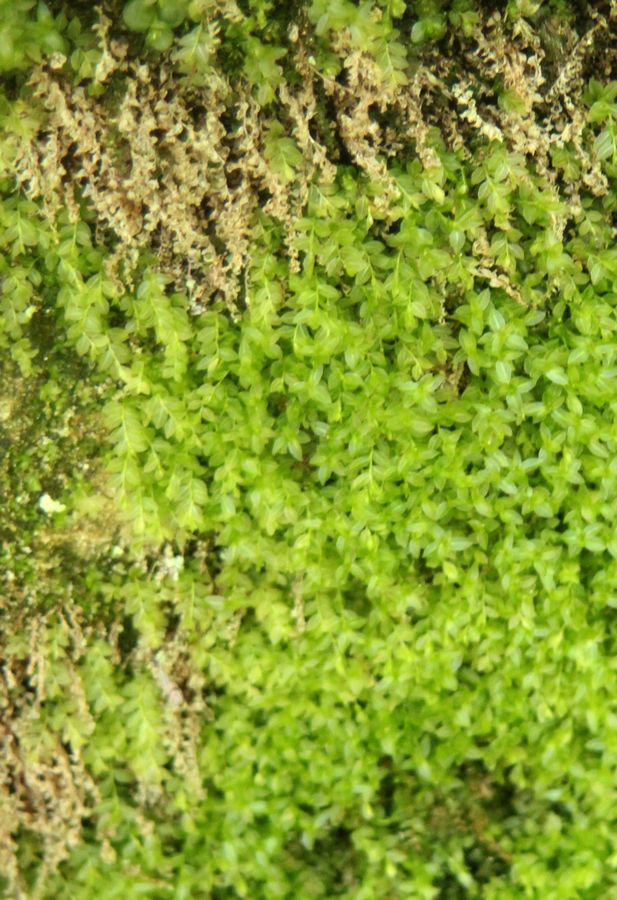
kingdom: Plantae
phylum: Bryophyta
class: Bryopsida
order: Dicranales
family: Schistostegaceae
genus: Schistostega
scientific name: Schistostega pennata
